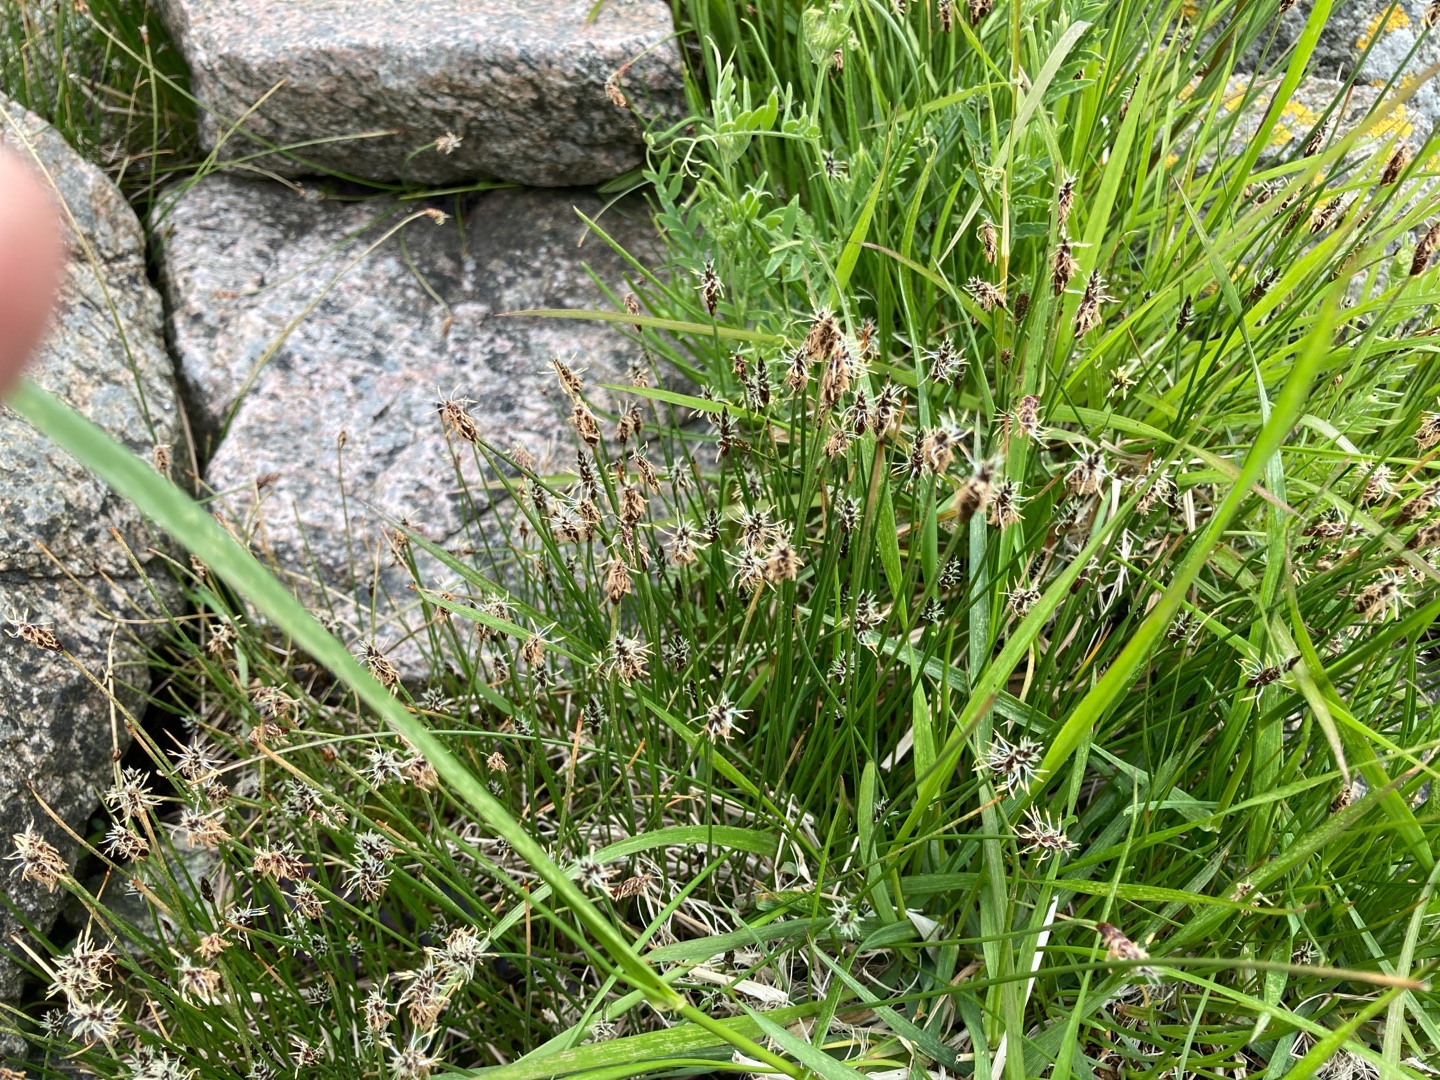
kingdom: Plantae
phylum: Tracheophyta
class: Liliopsida
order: Poales
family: Cyperaceae
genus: Eleocharis
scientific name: Eleocharis uniglumis
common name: Enskællet sumpstrå
